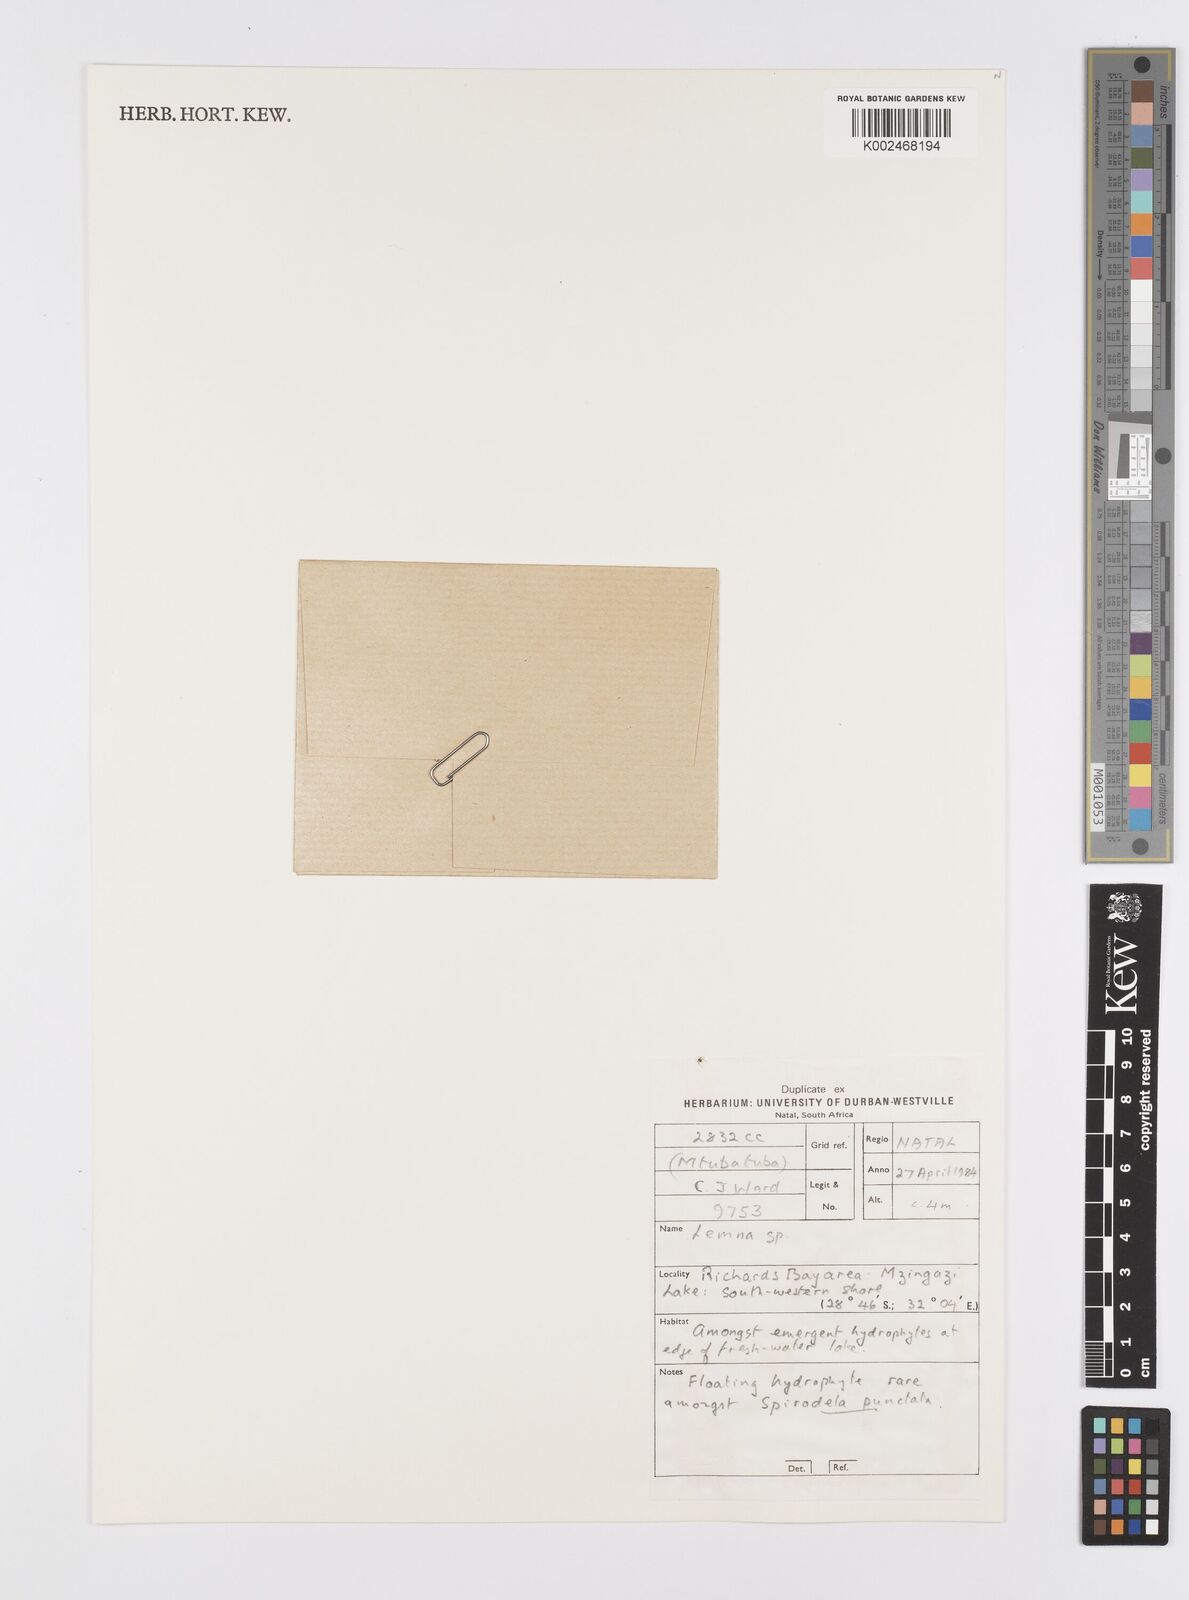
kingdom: Plantae
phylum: Tracheophyta
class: Liliopsida
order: Alismatales
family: Araceae
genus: Lemna
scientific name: Lemna
